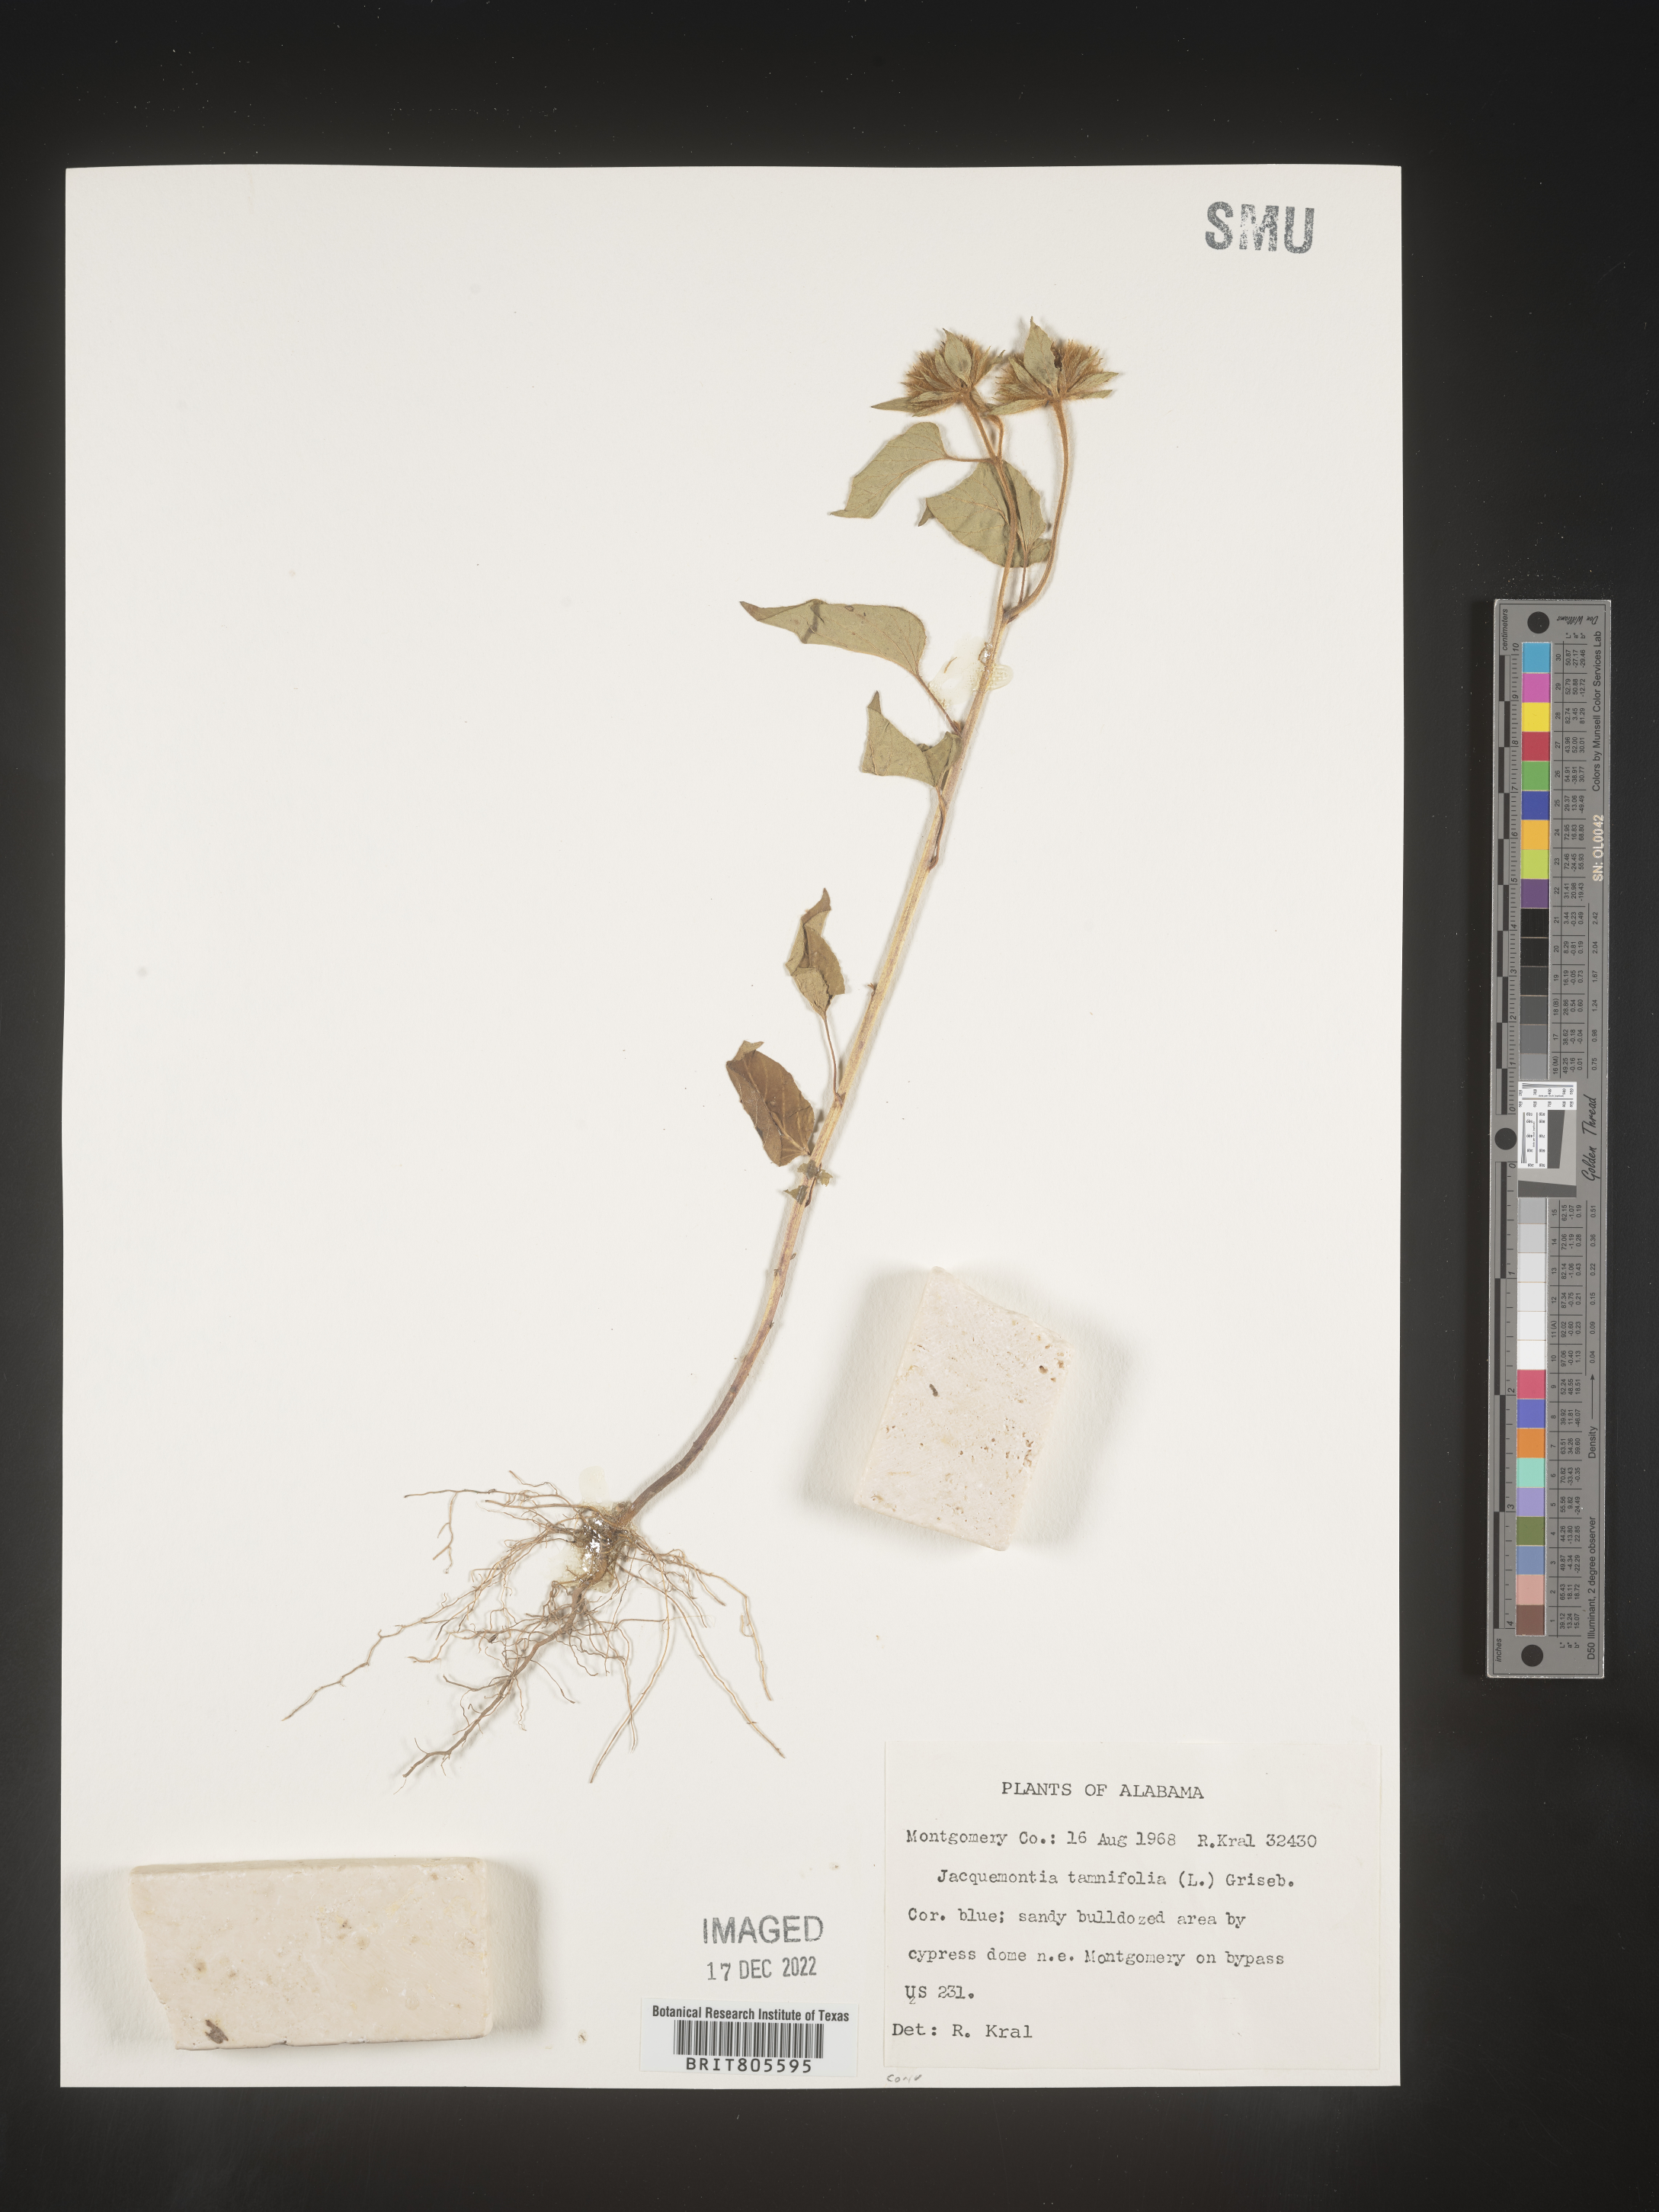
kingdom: Plantae
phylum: Tracheophyta
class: Magnoliopsida
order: Solanales
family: Convolvulaceae
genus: Jacquemontia
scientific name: Jacquemontia tamnifolia
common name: Hairy clustervine
